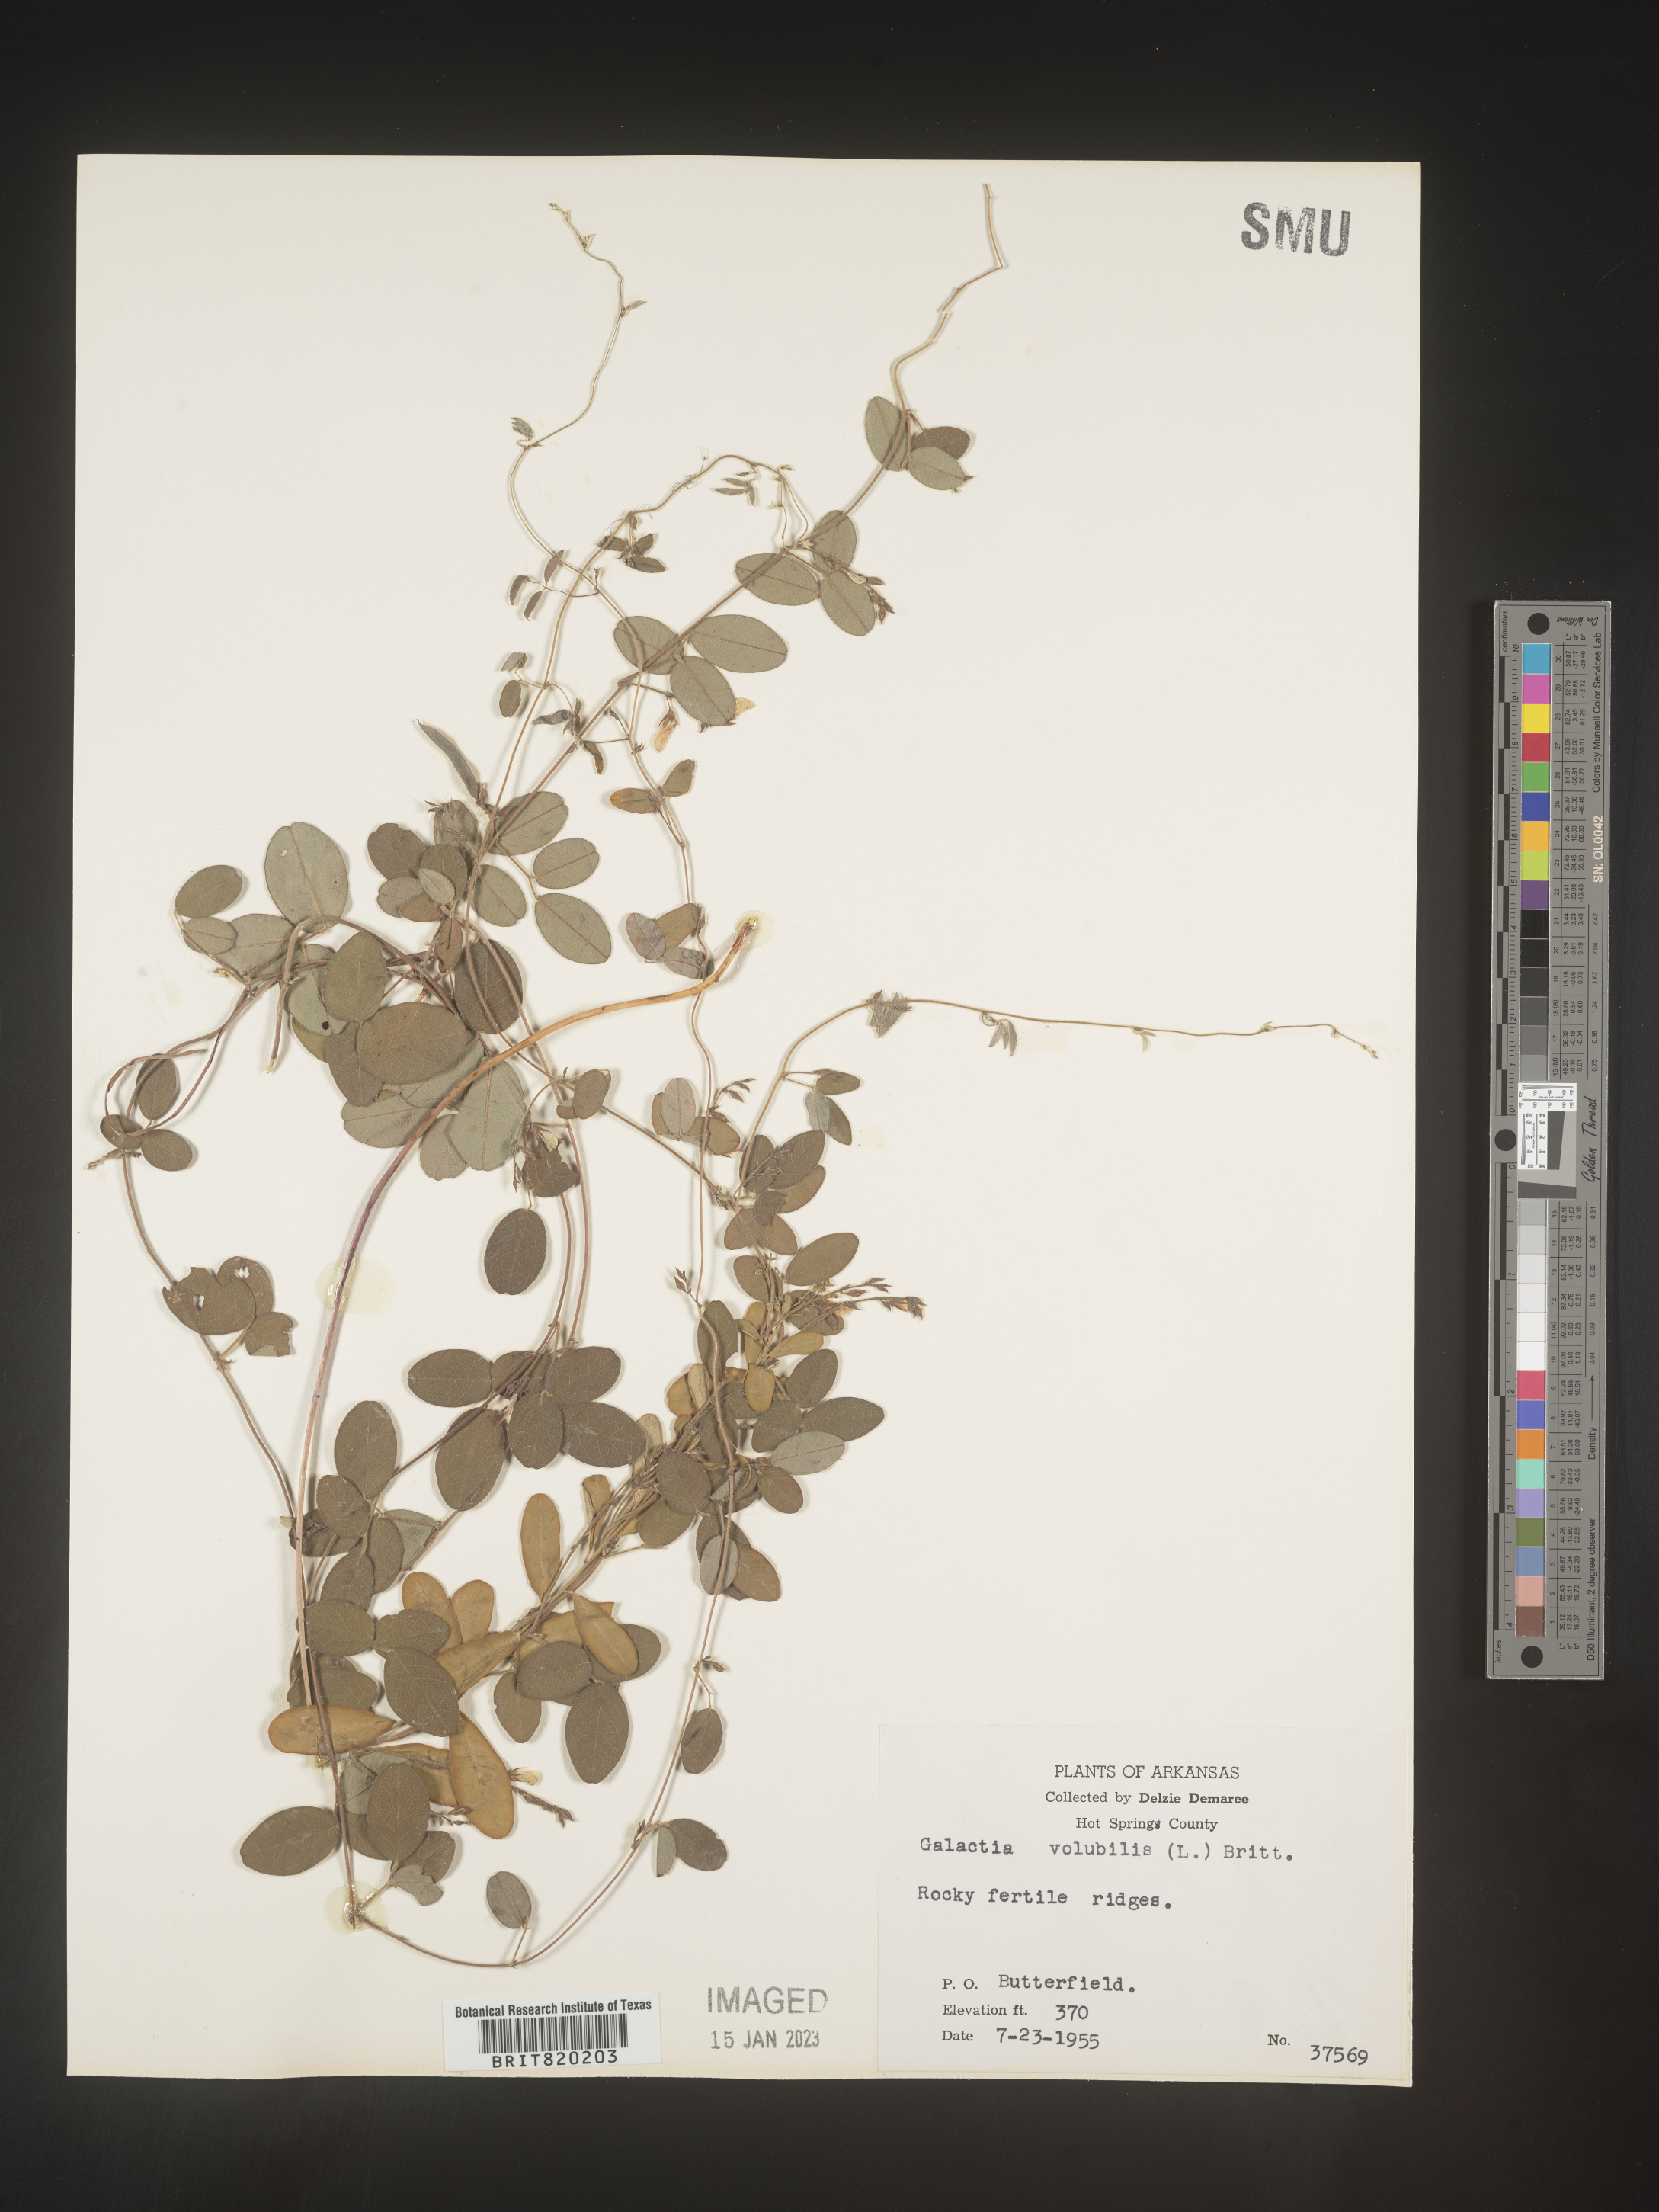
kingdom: Plantae
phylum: Tracheophyta
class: Magnoliopsida
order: Fabales
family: Fabaceae
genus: Galactia
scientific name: Galactia volubilis
